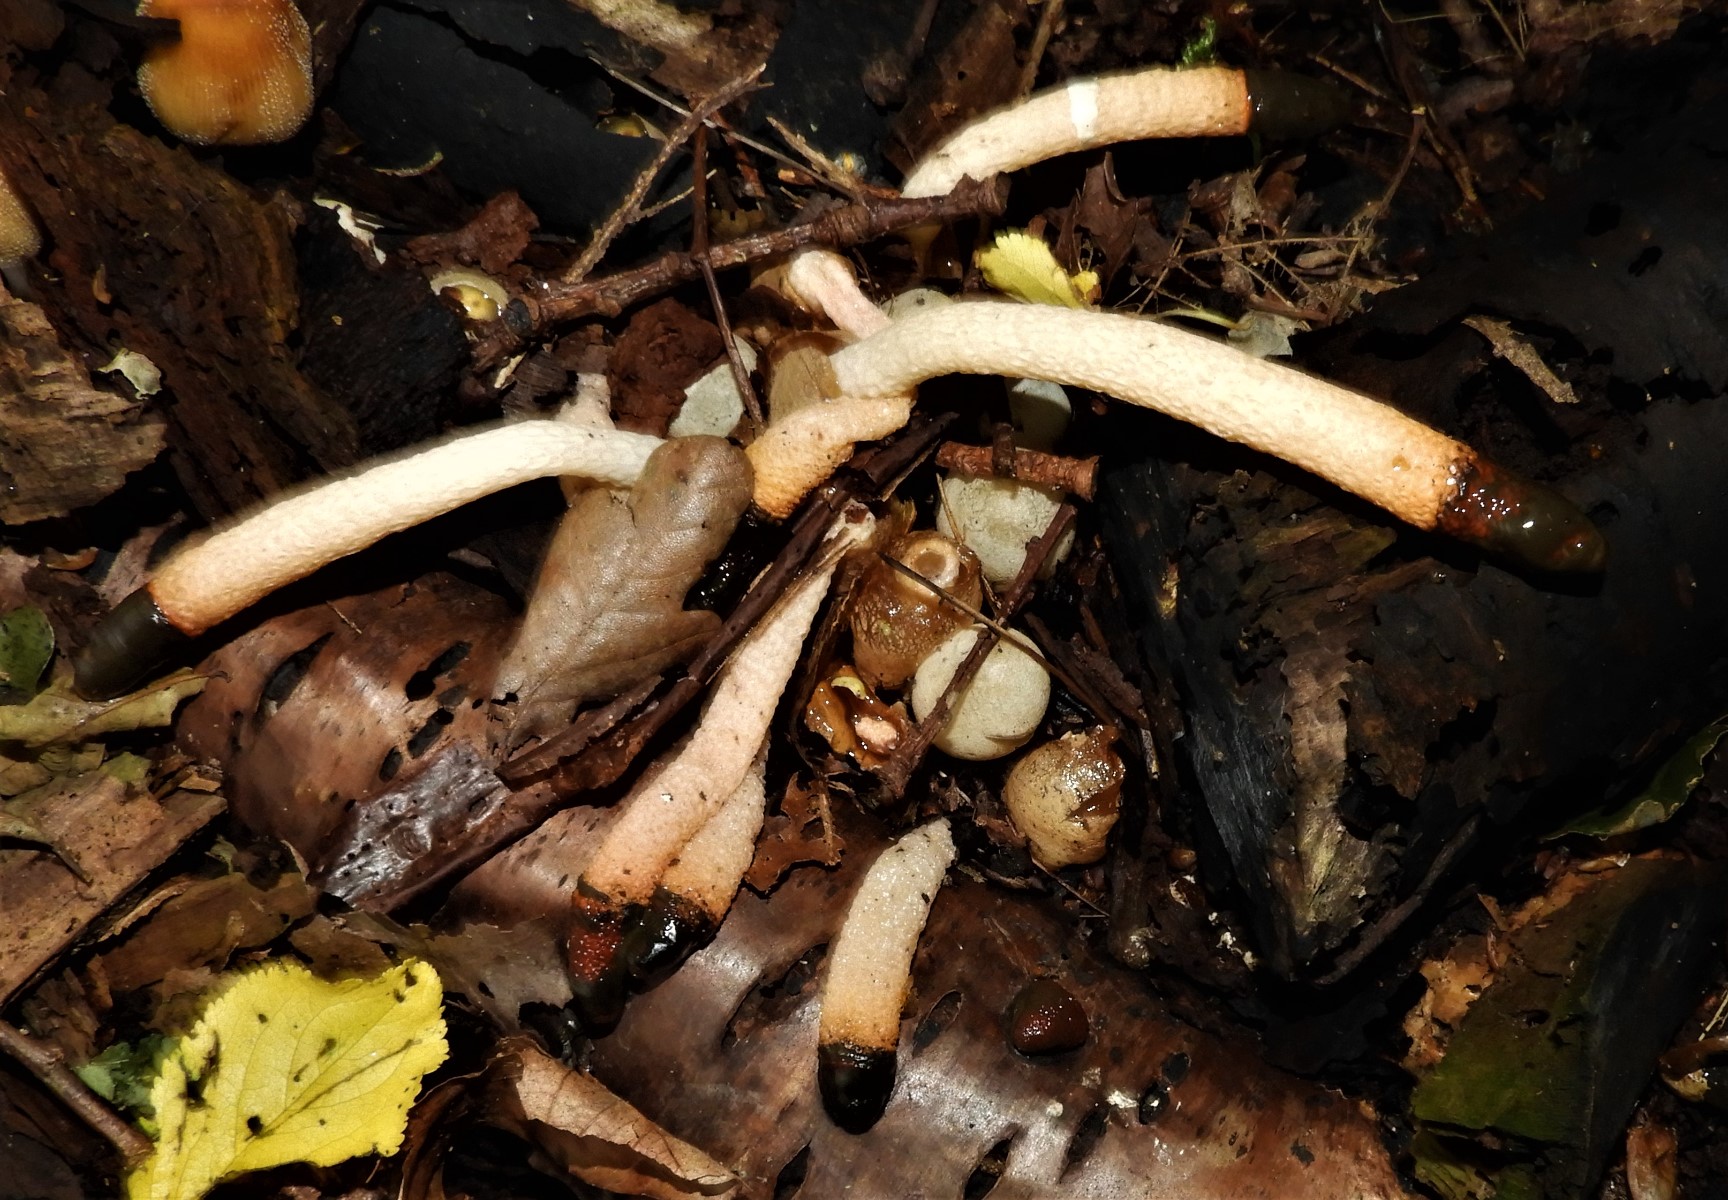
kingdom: Fungi
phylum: Basidiomycota
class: Agaricomycetes
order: Phallales
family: Phallaceae
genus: Mutinus
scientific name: Mutinus caninus
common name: hunde-stinksvamp
